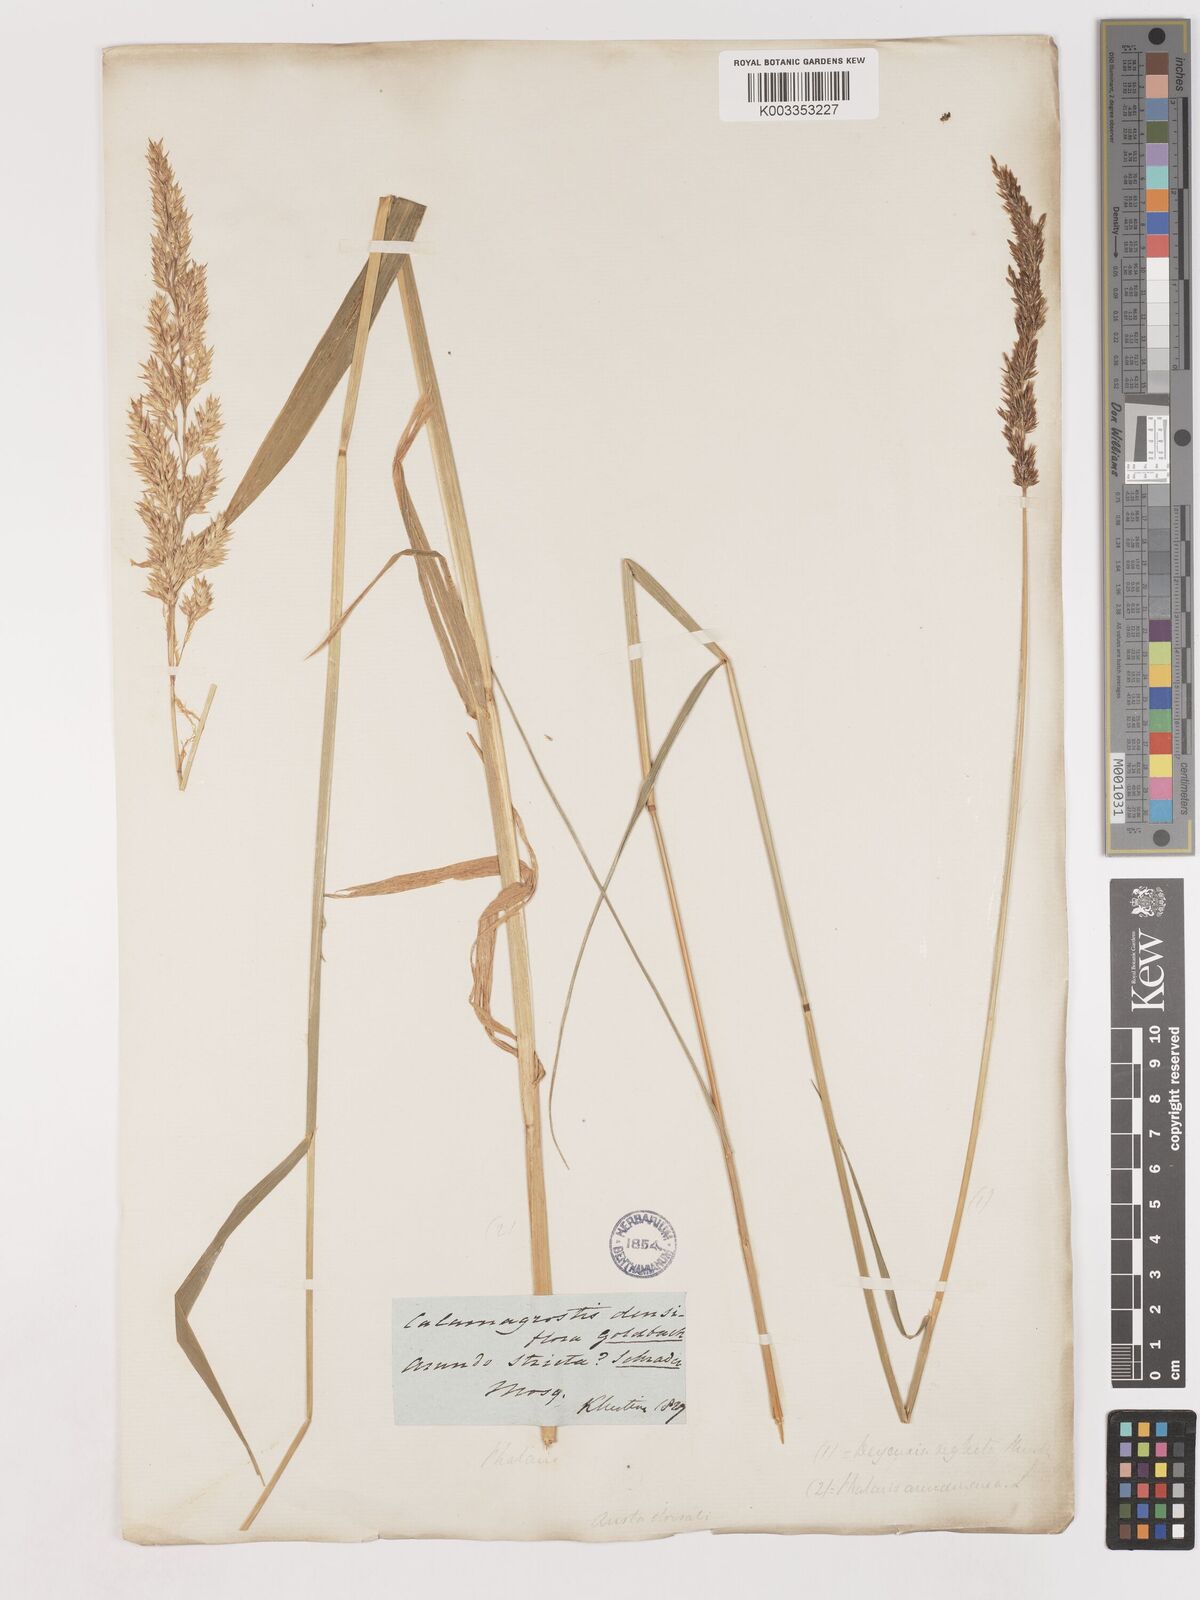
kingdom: Plantae
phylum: Tracheophyta
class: Liliopsida
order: Poales
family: Poaceae
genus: Cinnagrostis
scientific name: Cinnagrostis recta
